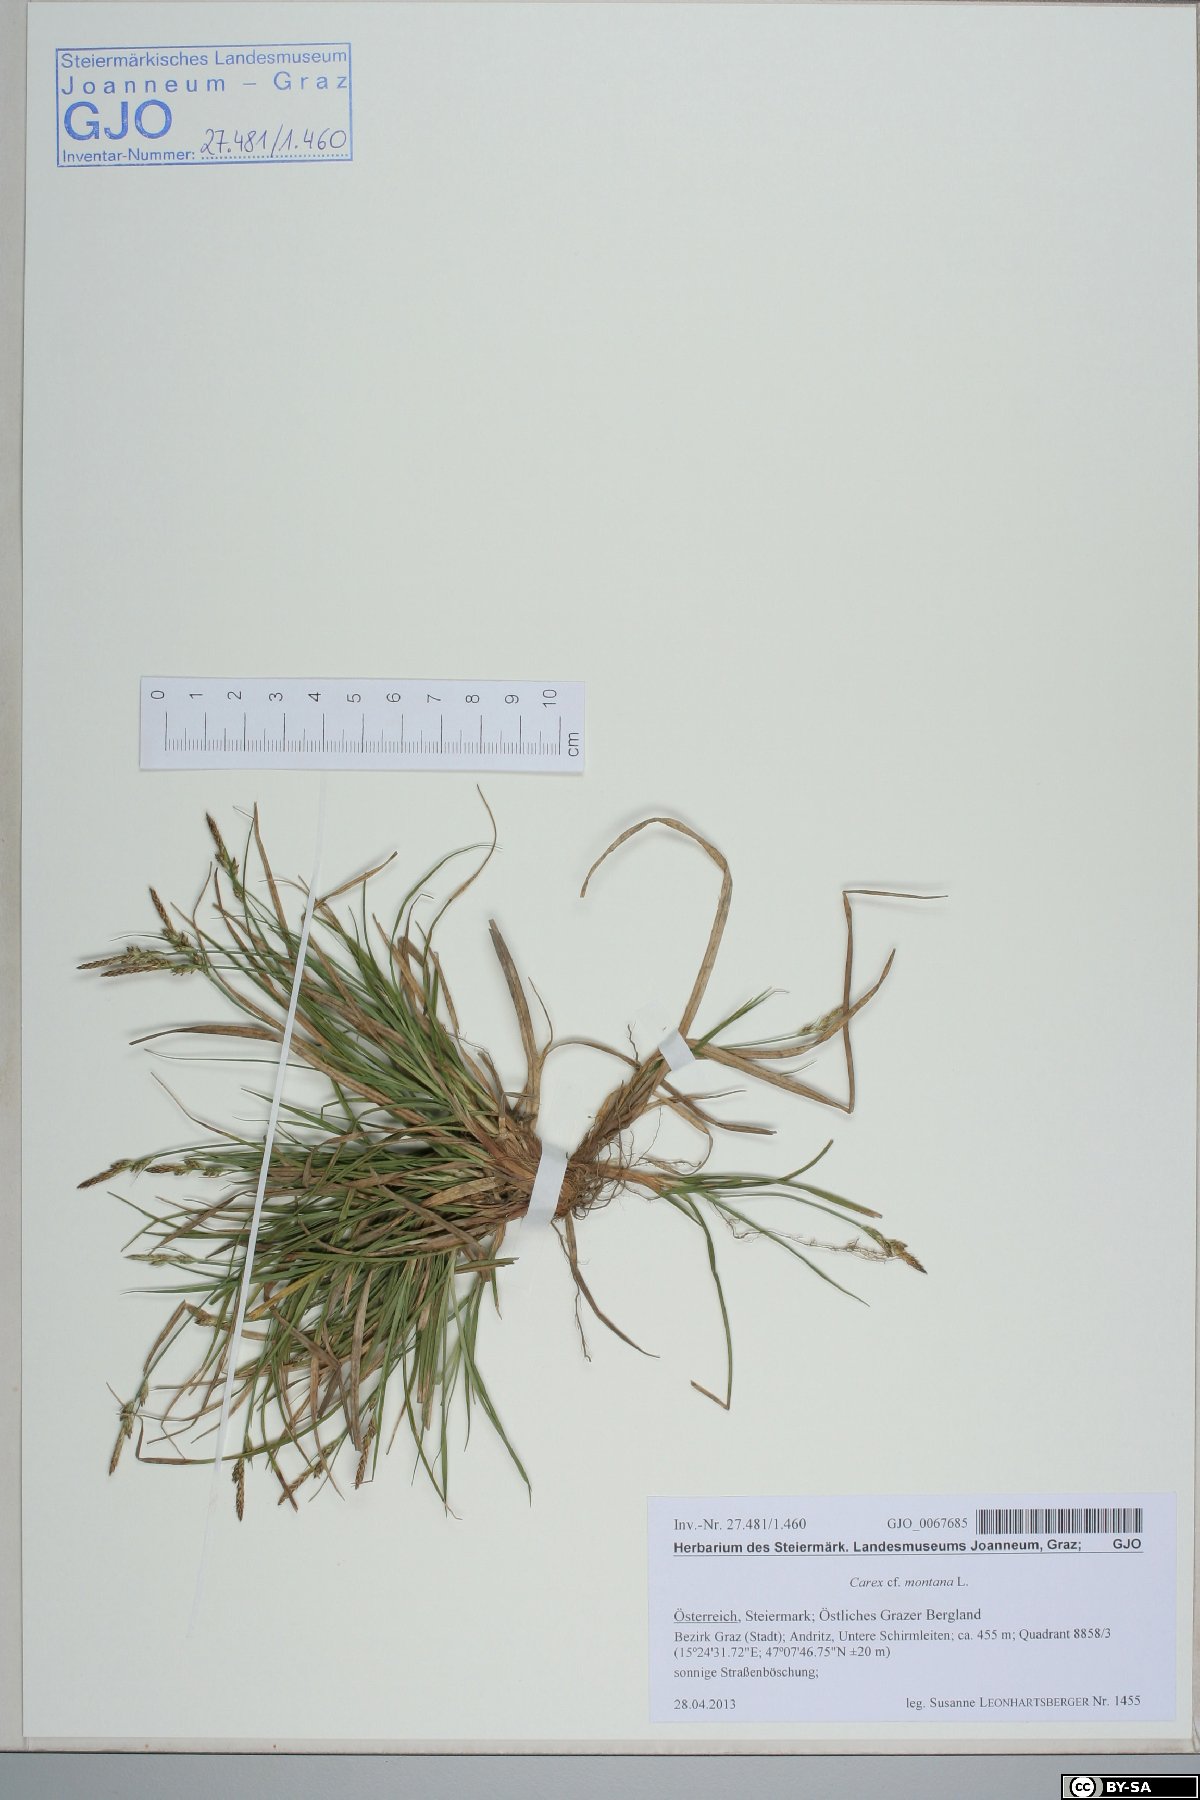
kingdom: Plantae
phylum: Tracheophyta
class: Liliopsida
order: Poales
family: Cyperaceae
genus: Carex
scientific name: Carex montana
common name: Soft-leaved sedge
